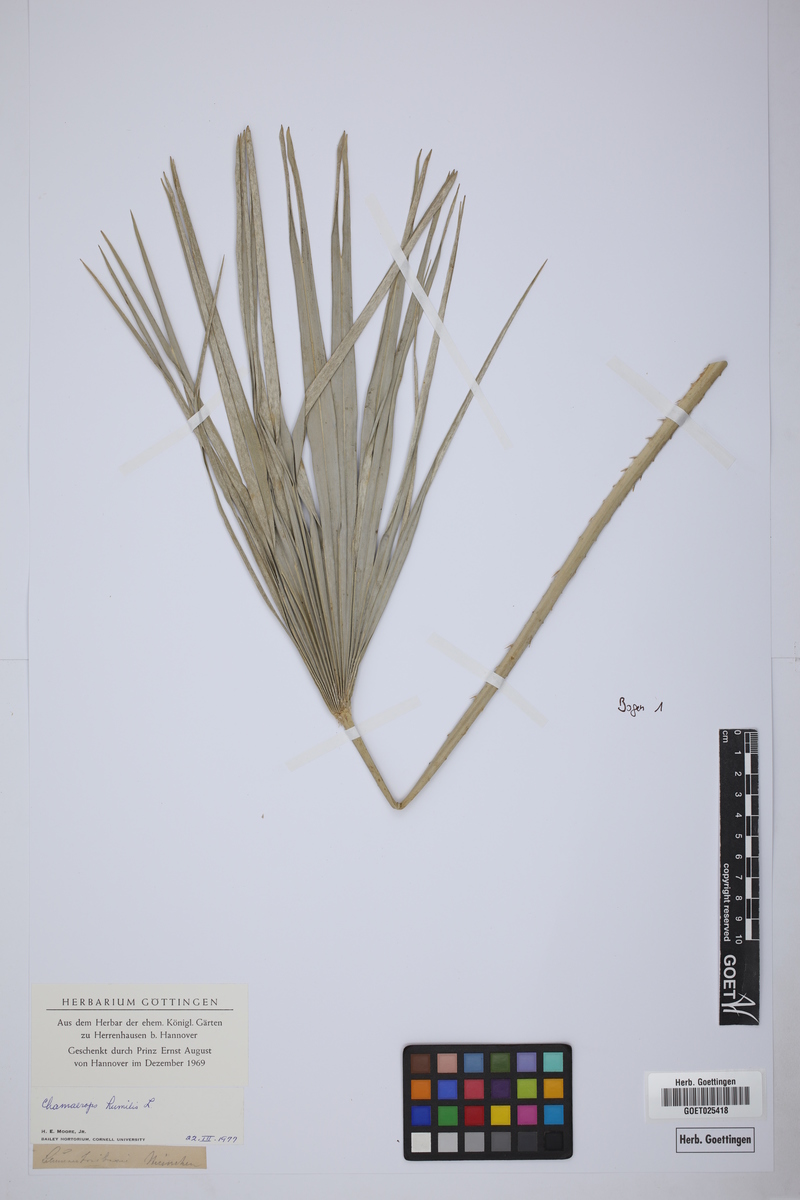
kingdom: Plantae
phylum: Tracheophyta
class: Liliopsida
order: Arecales
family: Arecaceae
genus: Chamaerops
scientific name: Chamaerops humilis
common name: Dwarf fan palm
